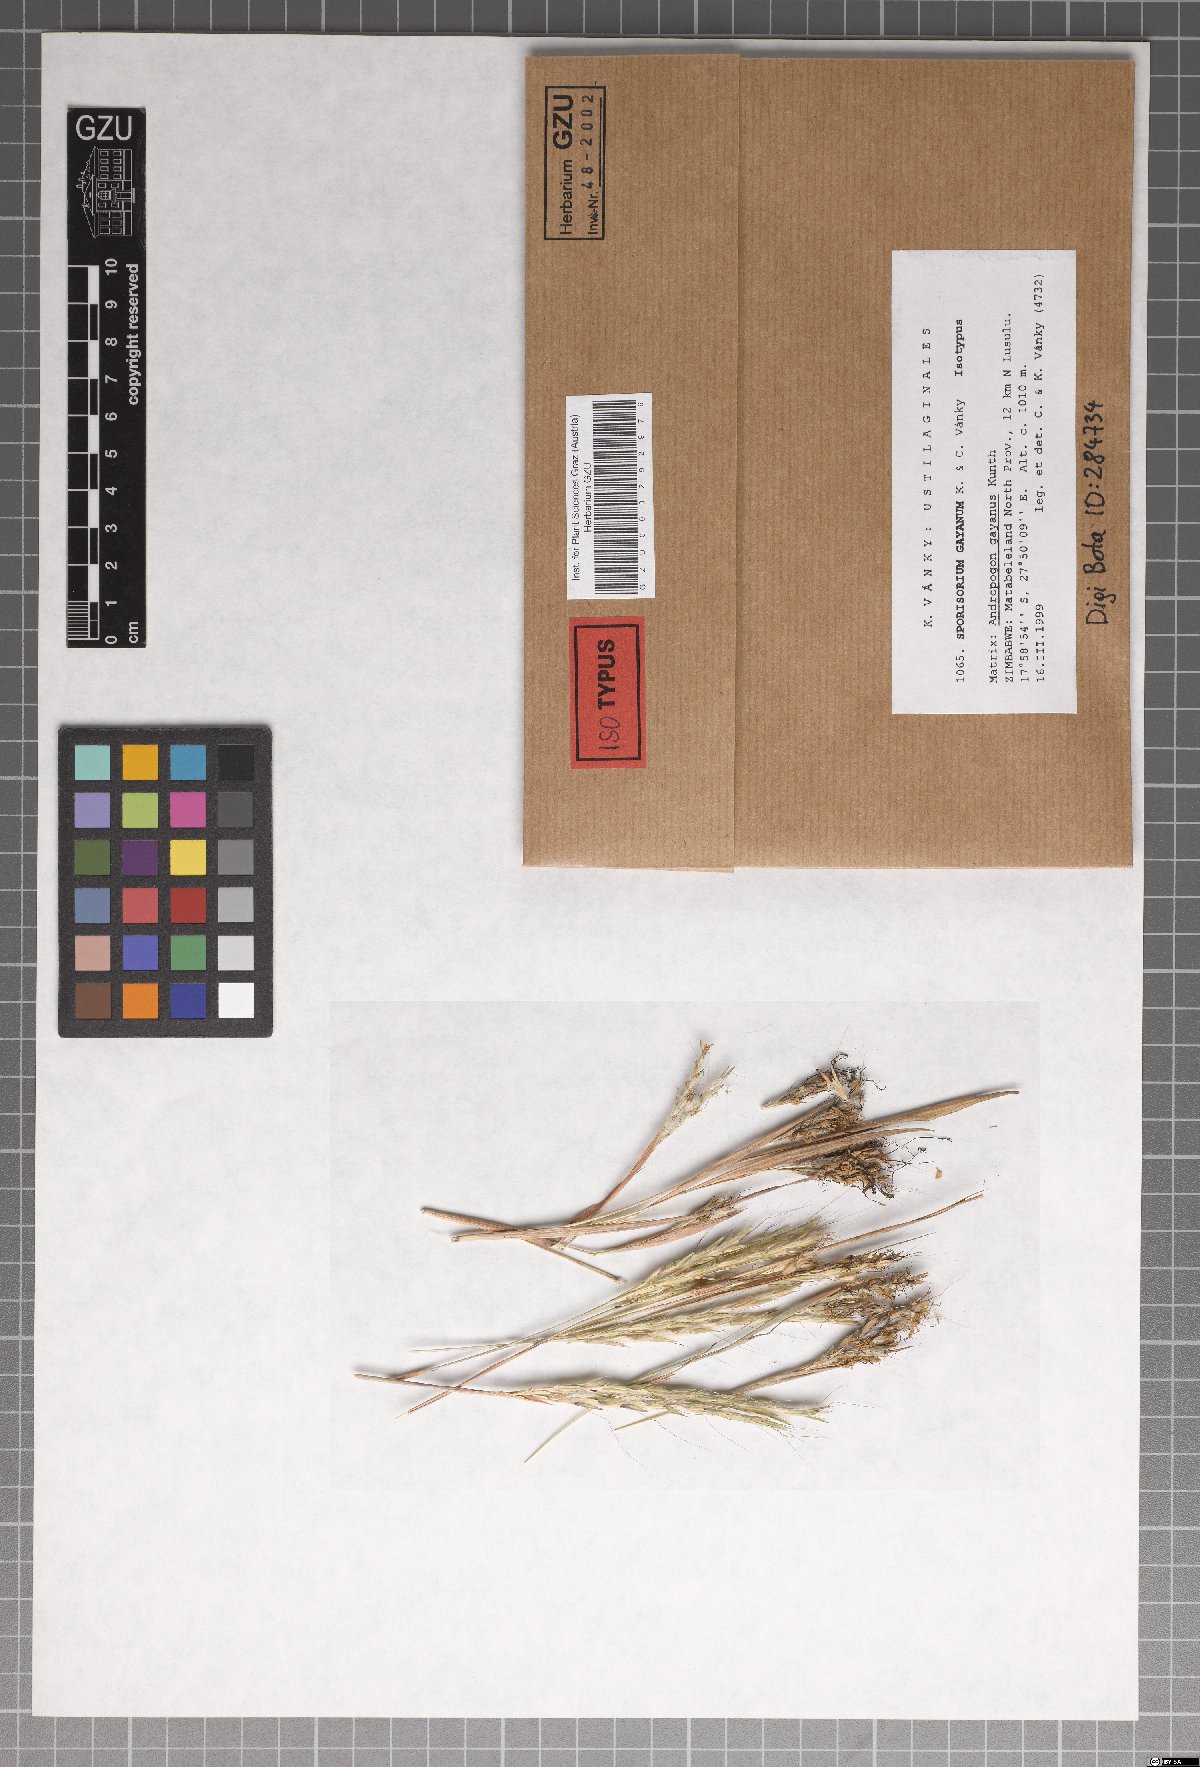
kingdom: Fungi
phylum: Basidiomycota
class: Ustilaginomycetes
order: Ustilaginales
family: Ustilaginaceae
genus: Anthracocystis
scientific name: Anthracocystis gayana
